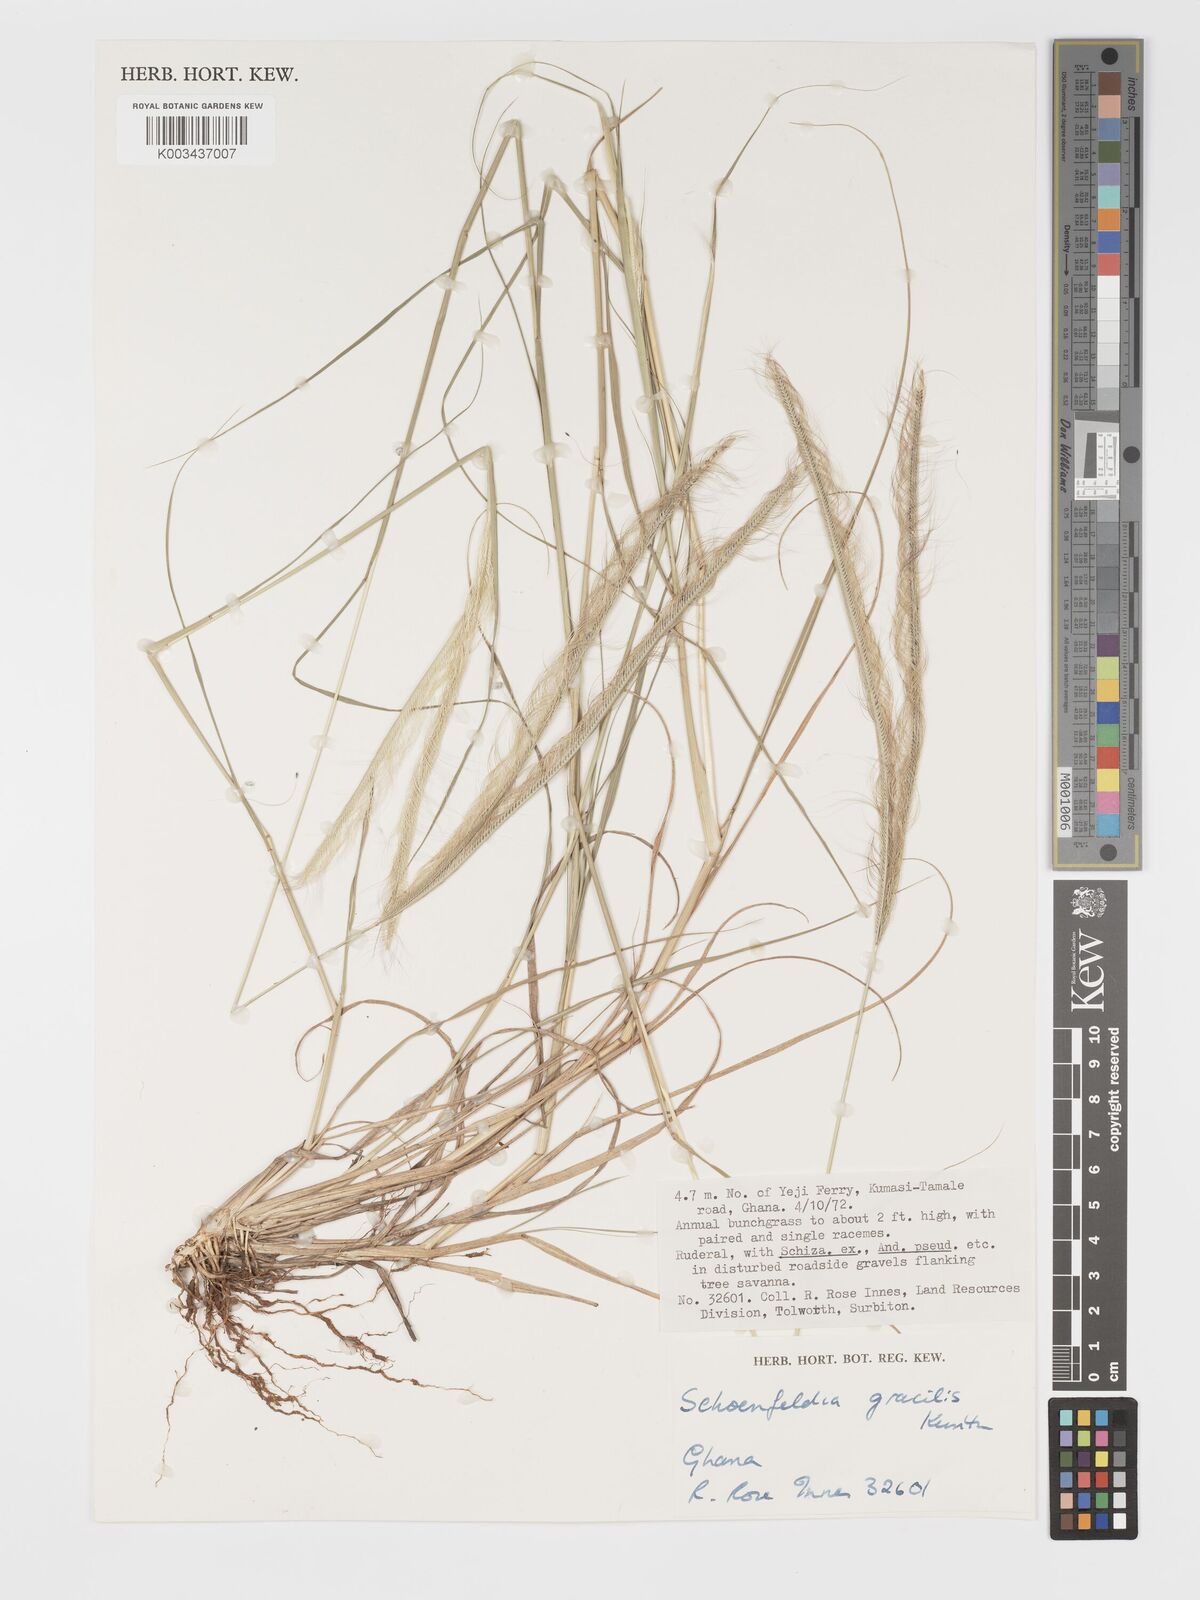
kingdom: Plantae
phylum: Tracheophyta
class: Liliopsida
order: Poales
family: Poaceae
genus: Schoenefeldia
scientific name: Schoenefeldia gracilis
